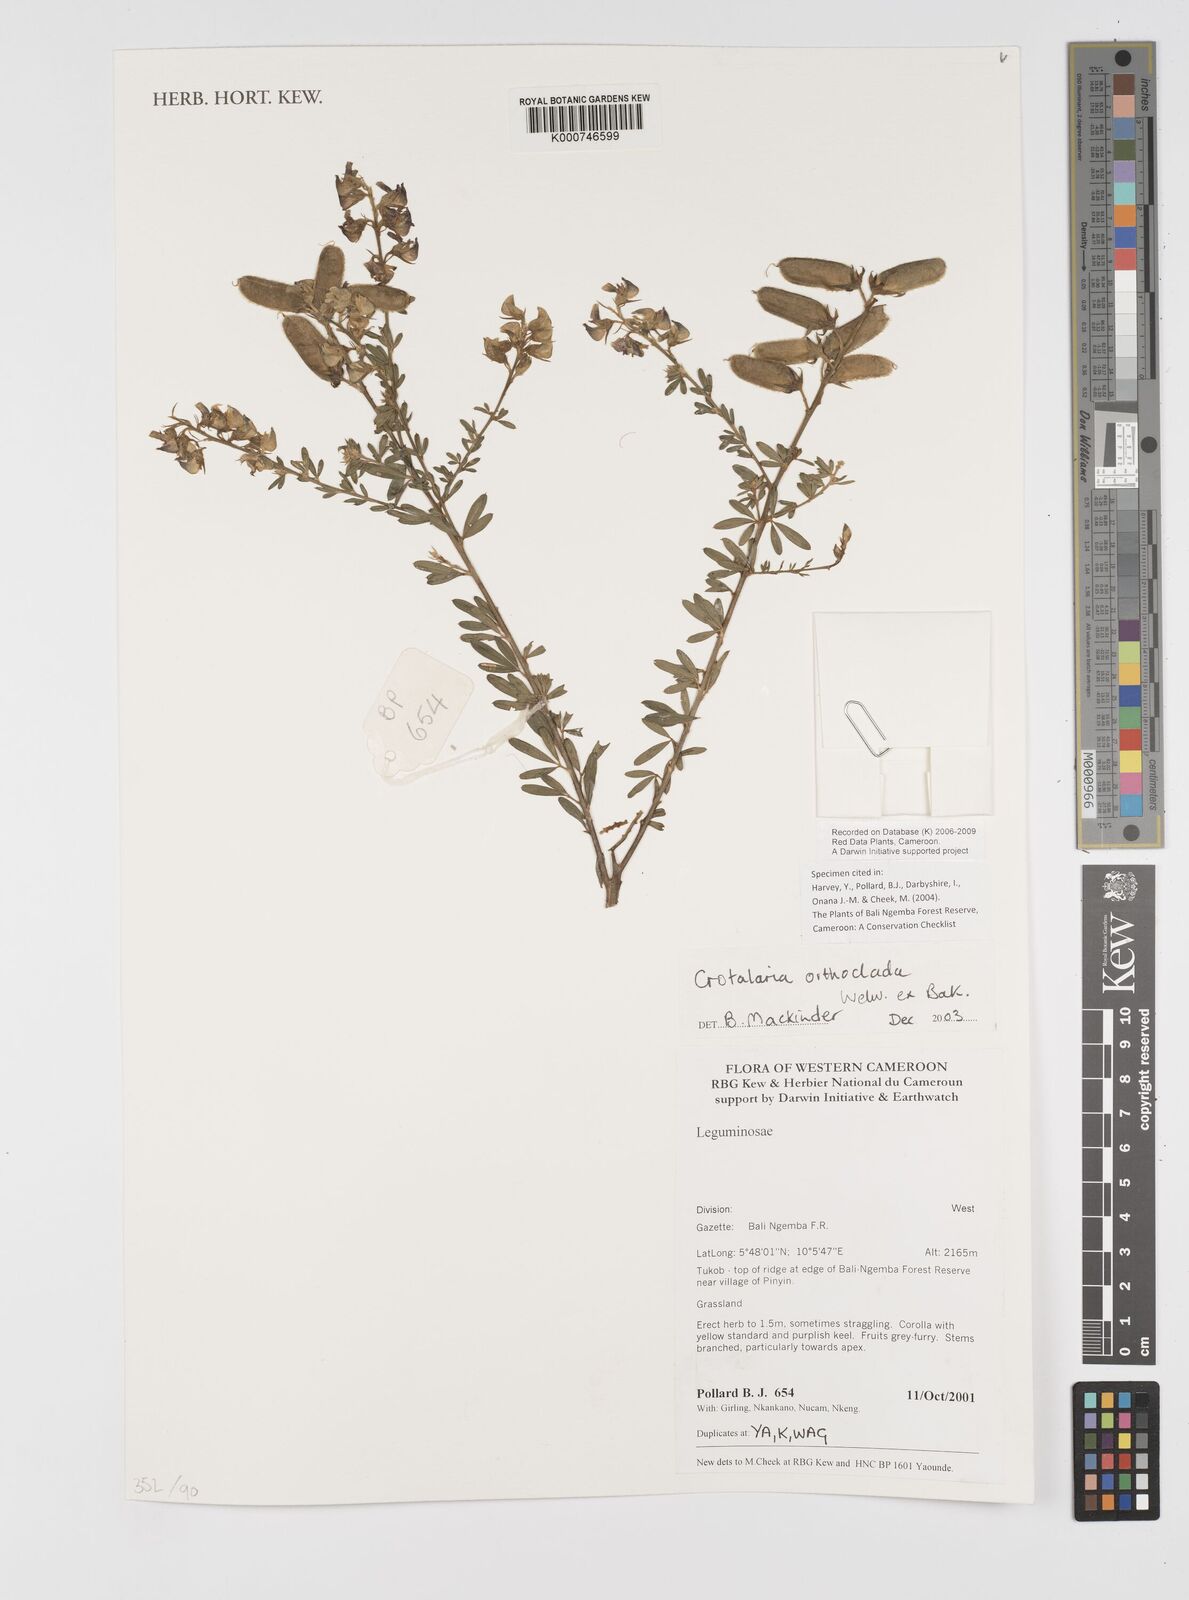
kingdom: Plantae
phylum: Tracheophyta
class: Magnoliopsida
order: Fabales
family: Fabaceae
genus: Crotalaria
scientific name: Crotalaria orthoclada
